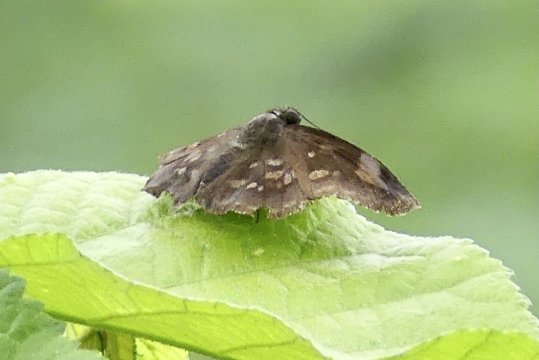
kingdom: Animalia
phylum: Arthropoda
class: Insecta
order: Lepidoptera
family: Hesperiidae
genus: Achlyodes
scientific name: Achlyodes
